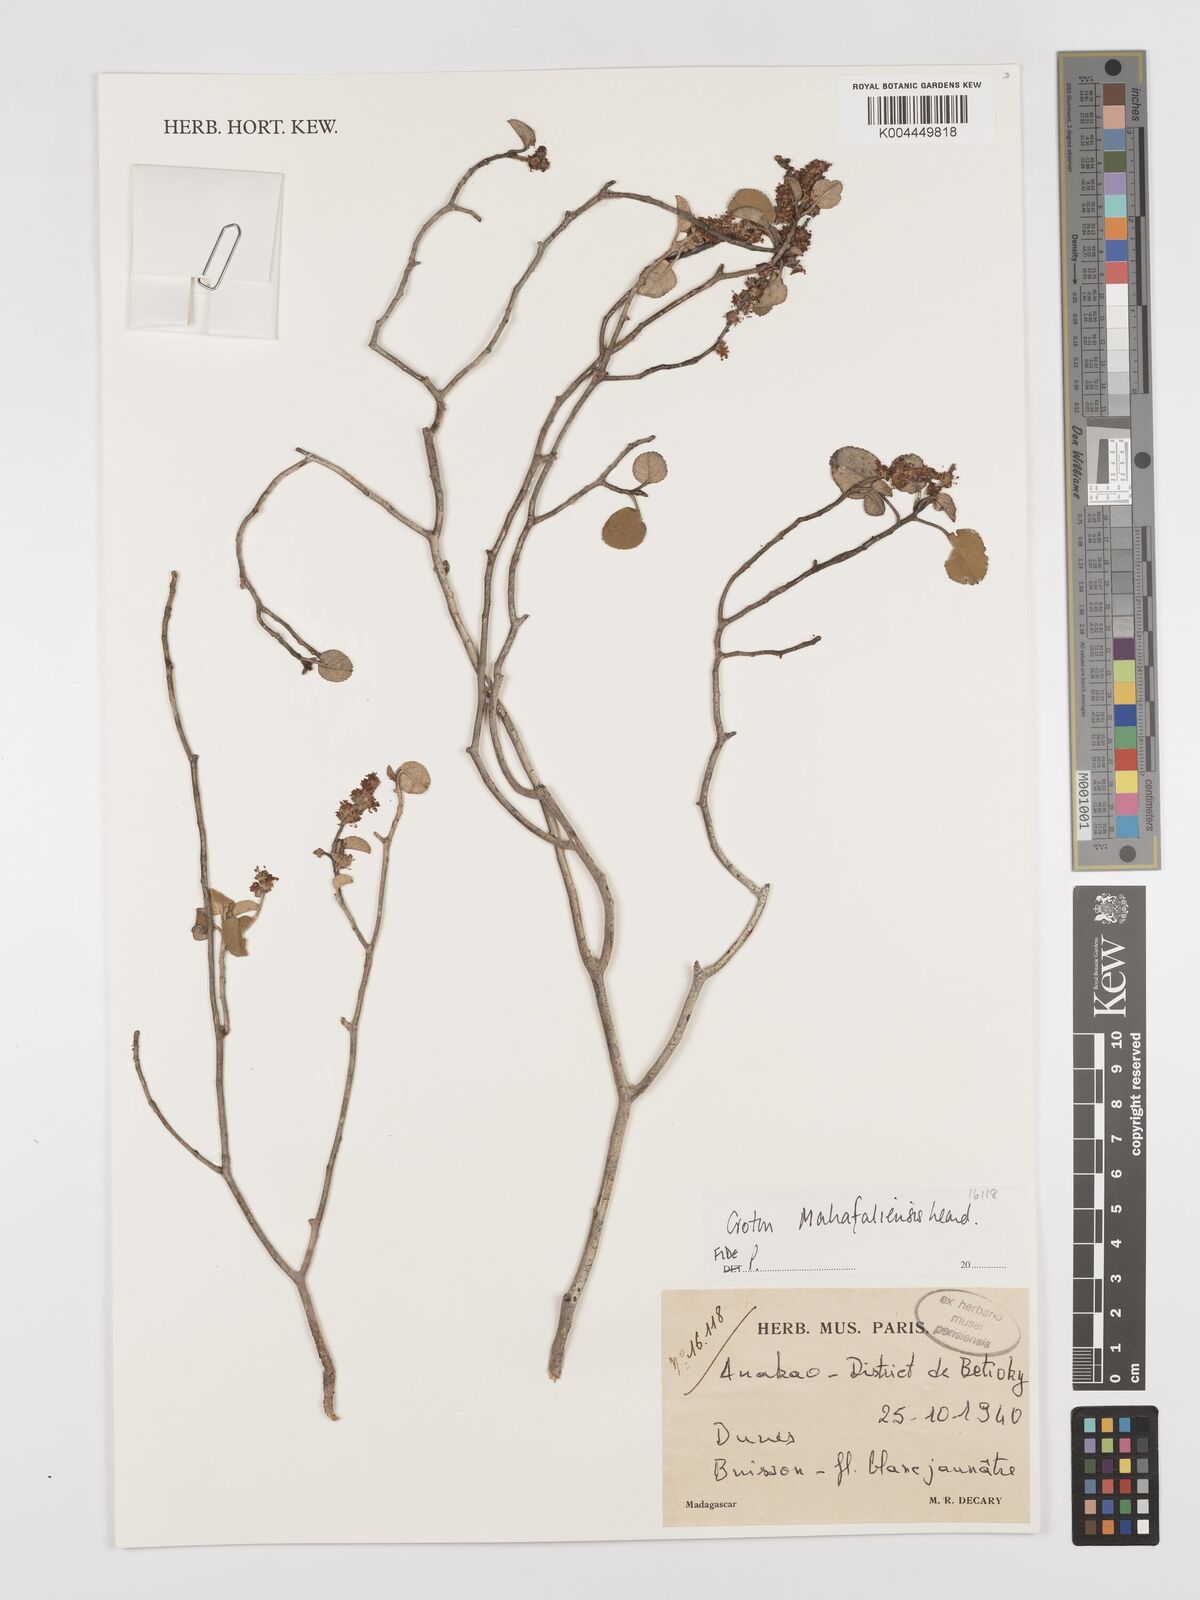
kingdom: Plantae
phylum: Tracheophyta
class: Magnoliopsida
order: Malpighiales
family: Euphorbiaceae
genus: Croton
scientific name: Croton cotoneaster
